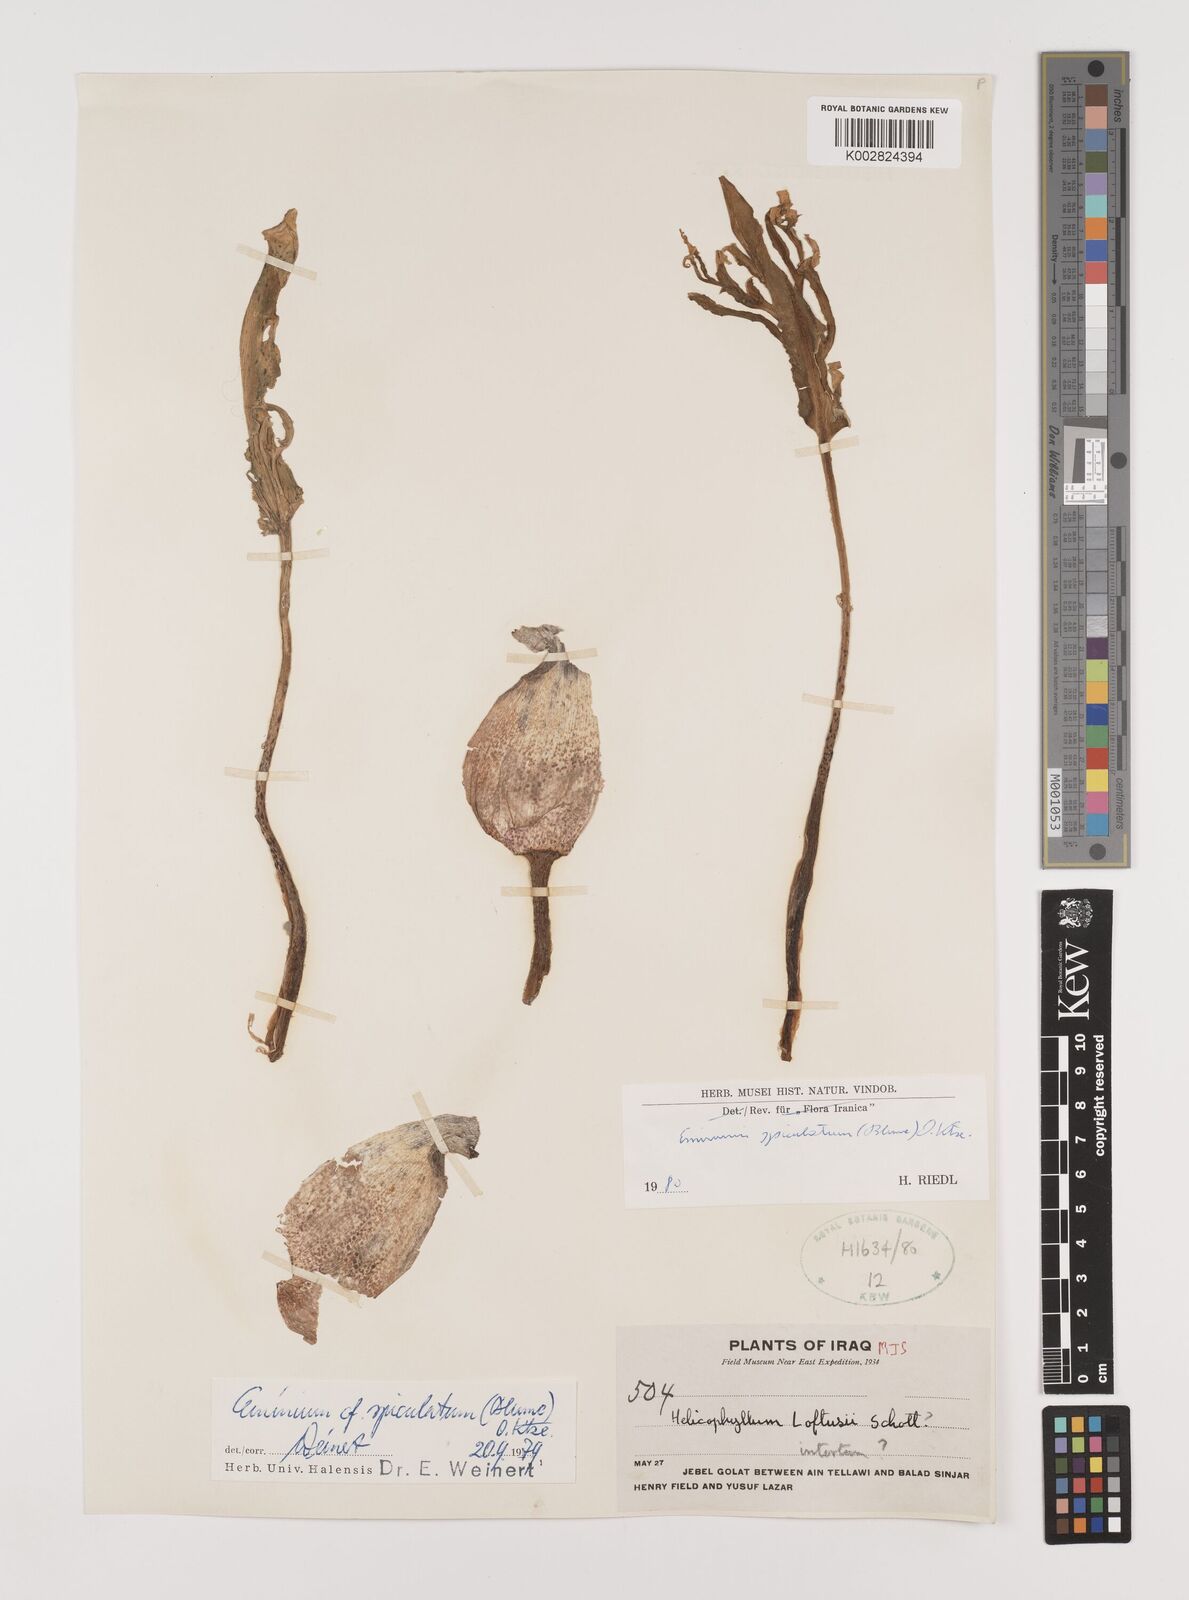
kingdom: Plantae
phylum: Tracheophyta
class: Liliopsida
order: Alismatales
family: Araceae
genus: Eminium
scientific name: Eminium spiculatum
